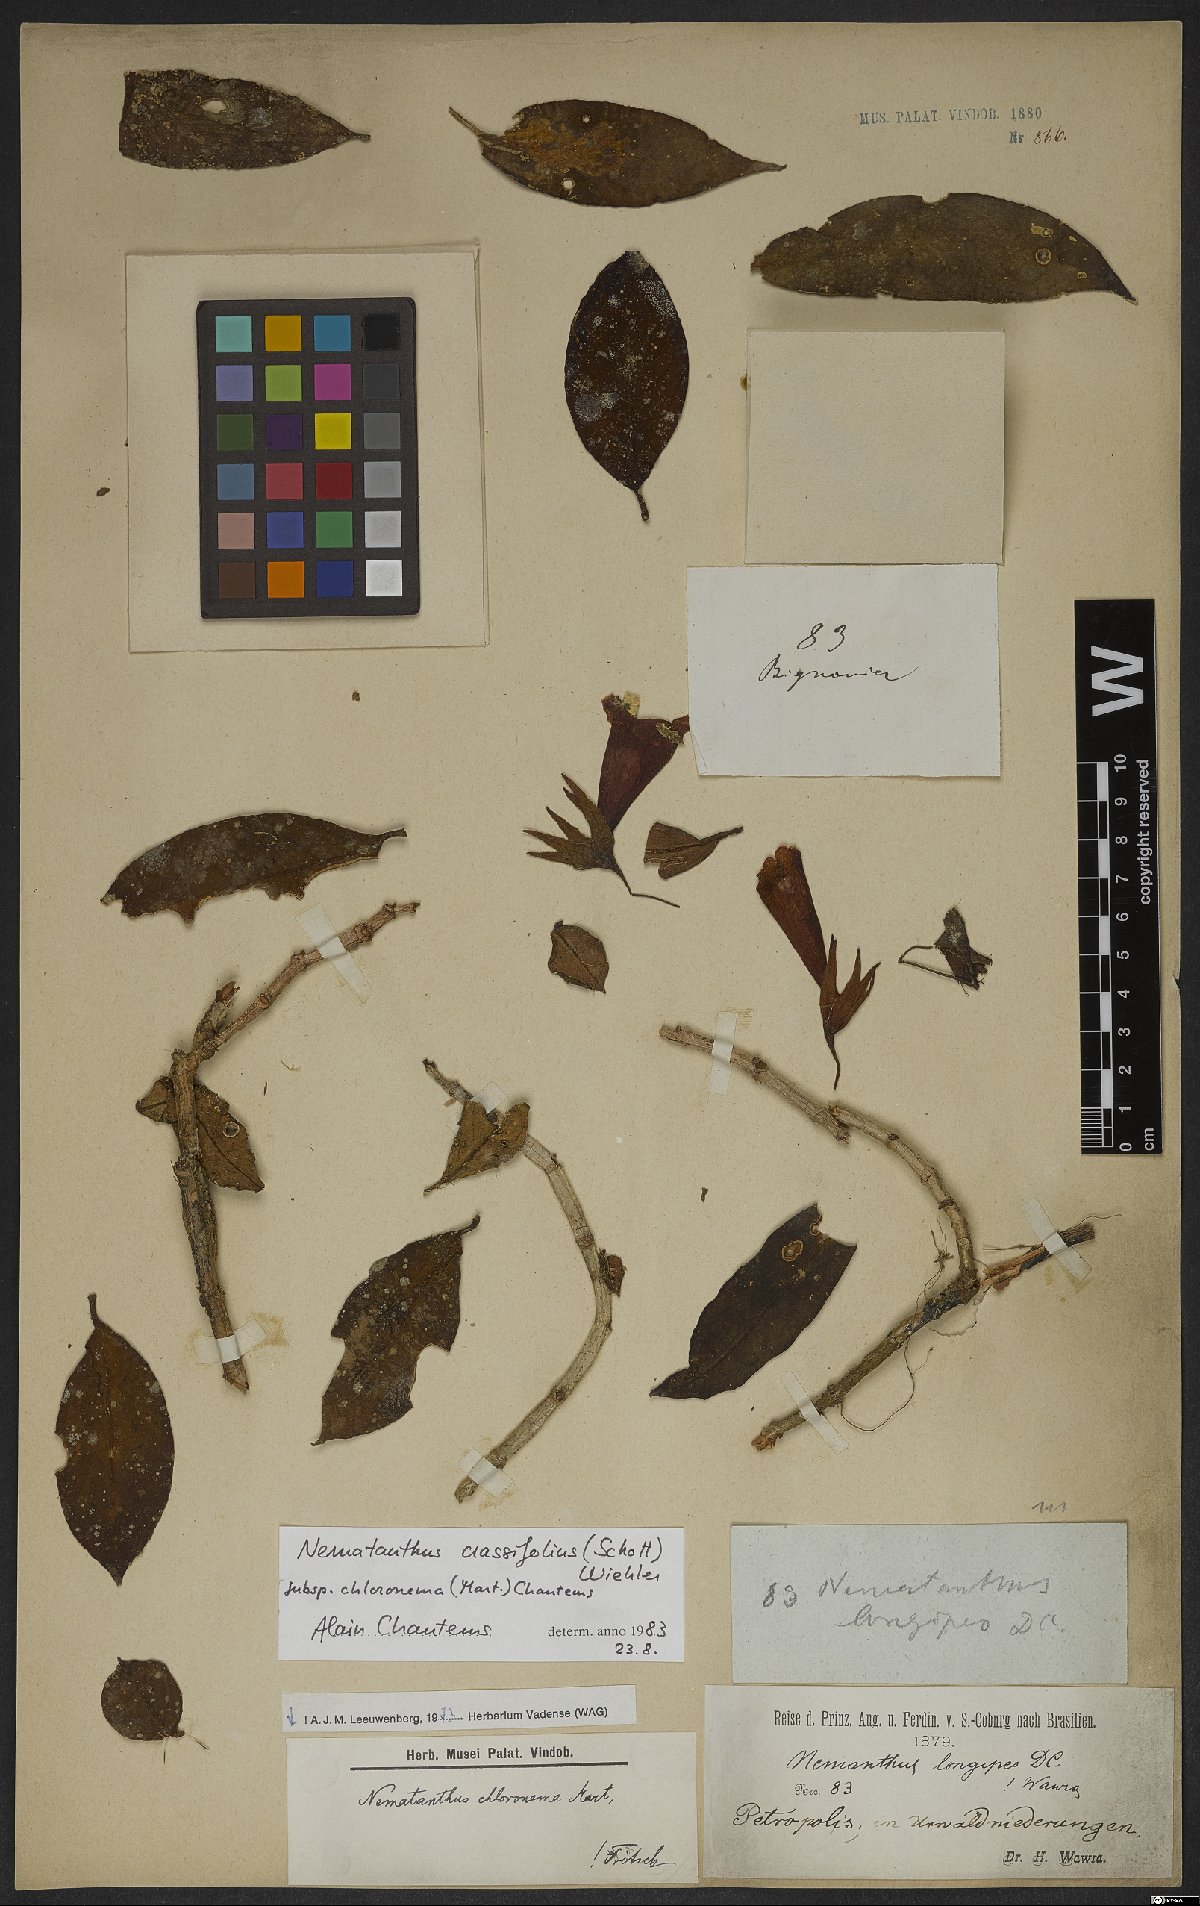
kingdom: Plantae
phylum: Tracheophyta
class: Magnoliopsida
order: Lamiales
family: Gesneriaceae
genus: Nematanthus
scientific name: Nematanthus crassifolius
